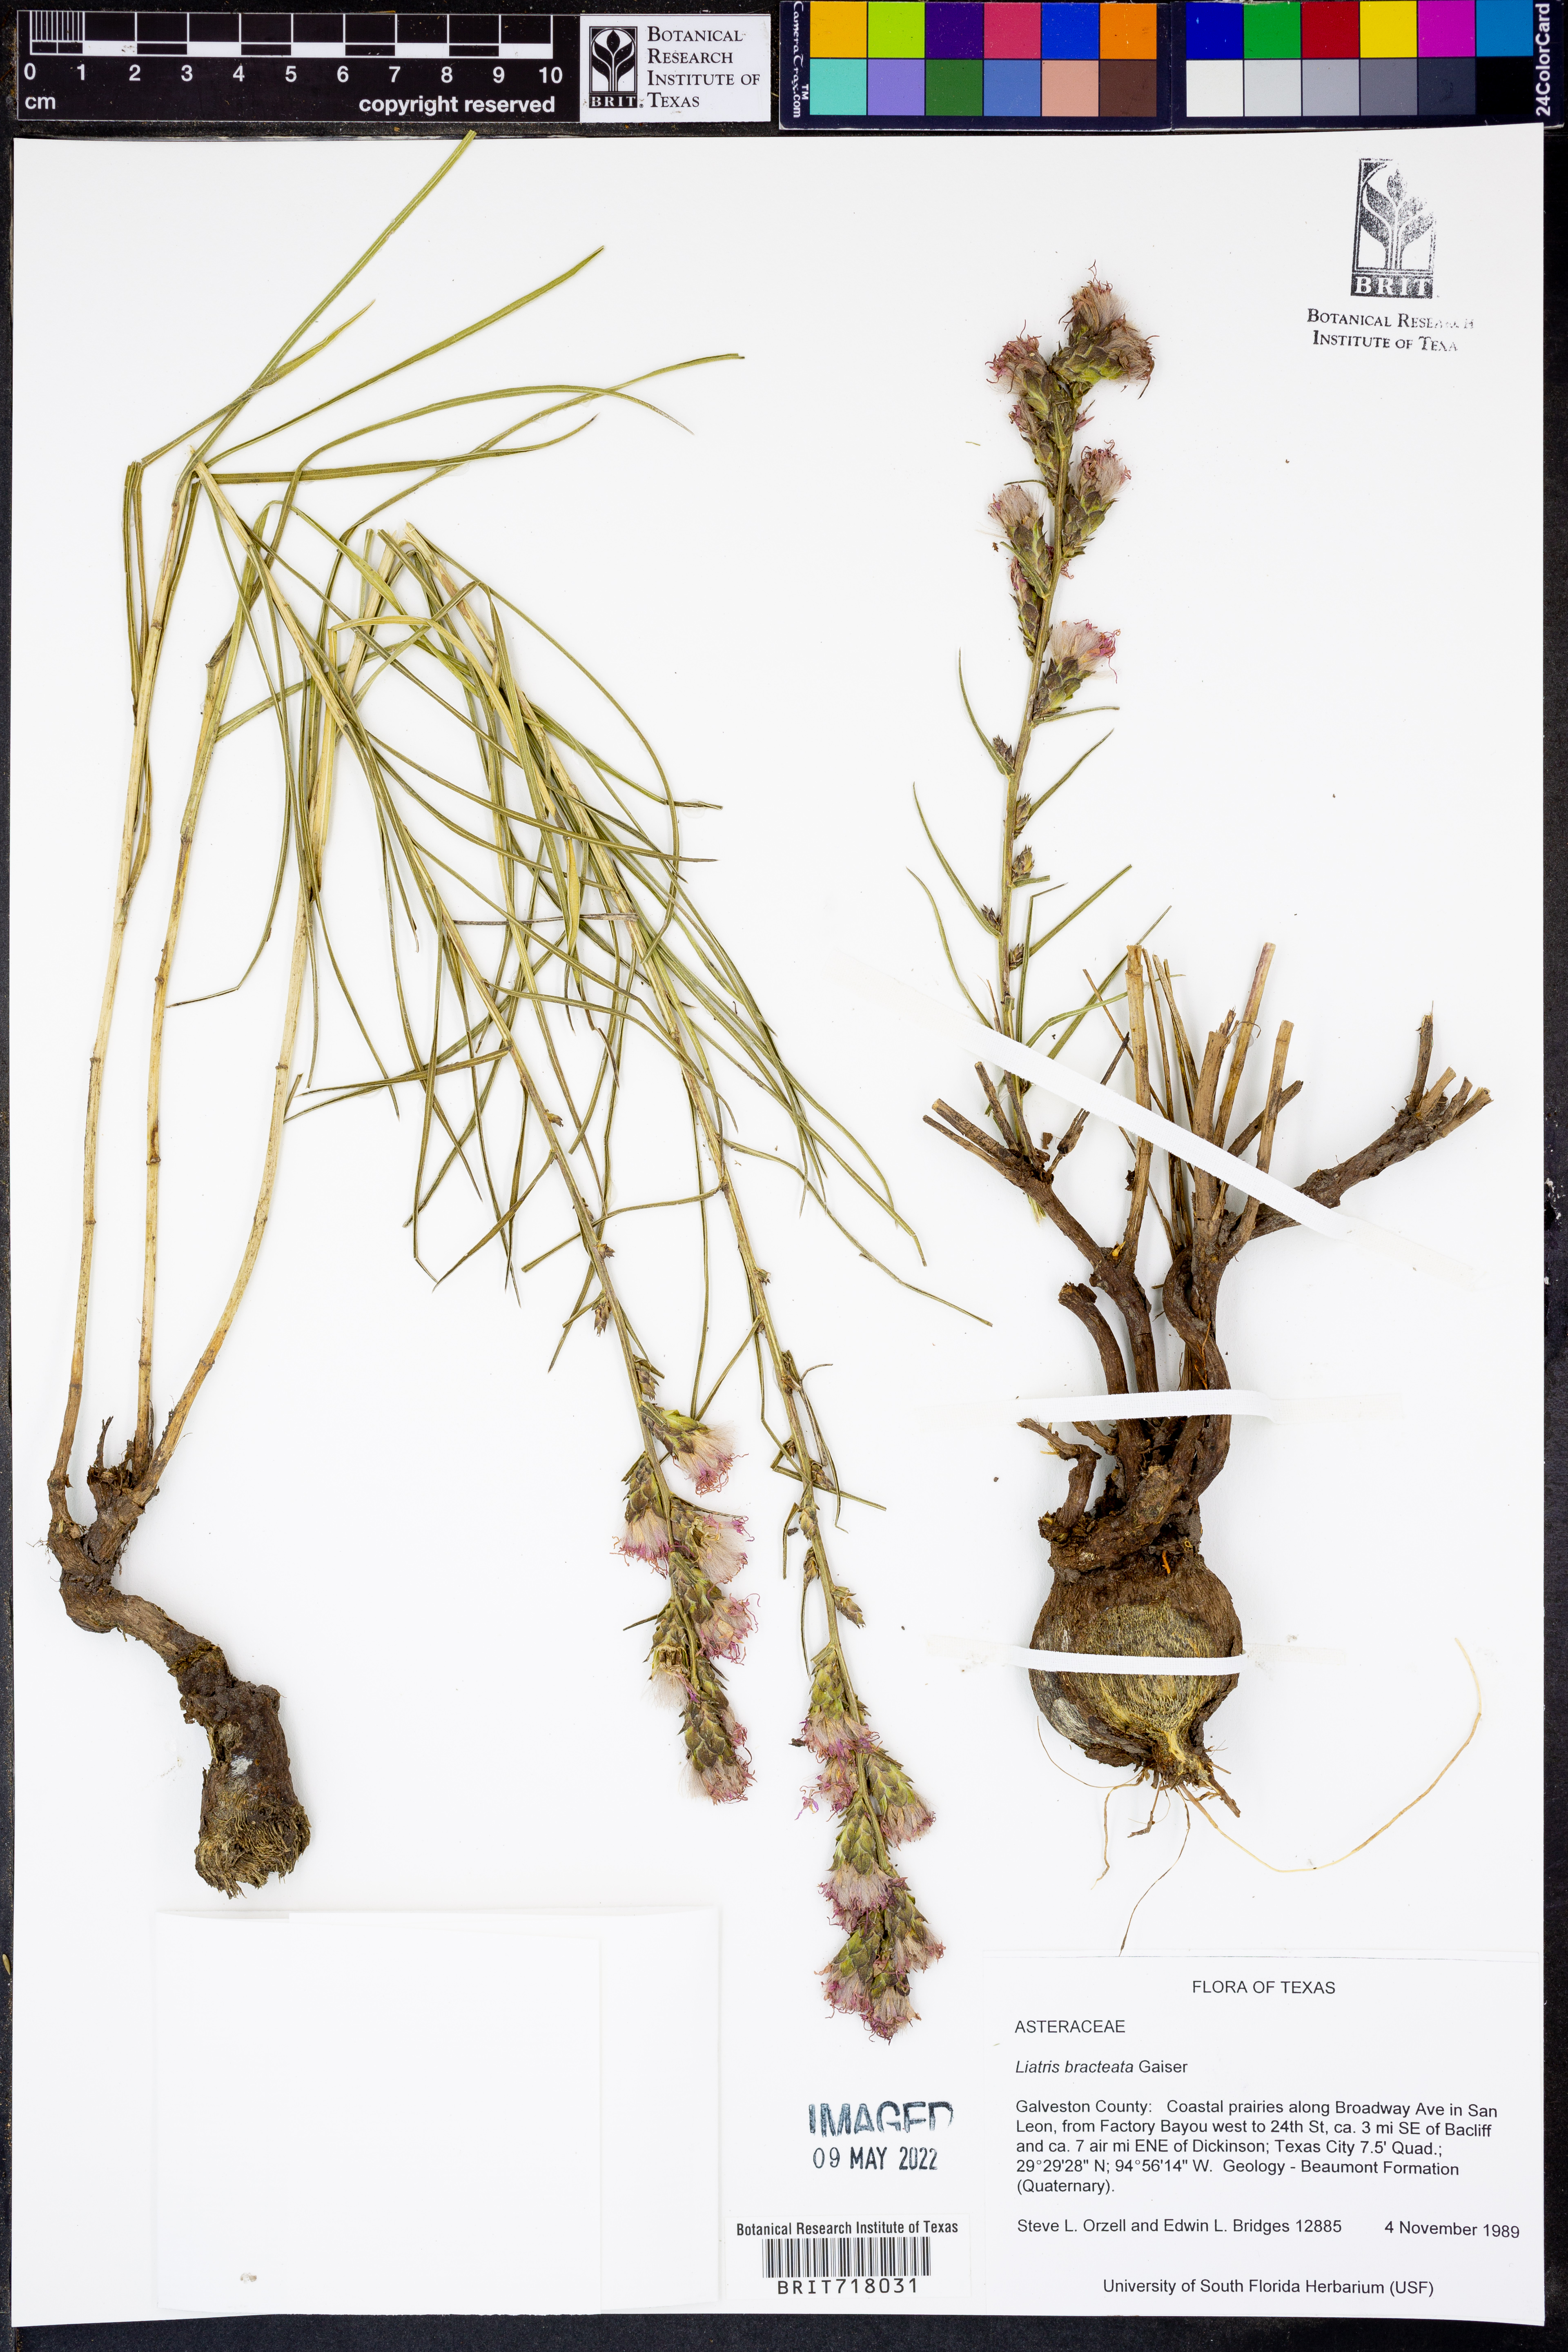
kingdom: Plantae
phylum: Tracheophyta
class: Magnoliopsida
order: Asterales
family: Asteraceae
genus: Liatris
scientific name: Liatris bracteata
